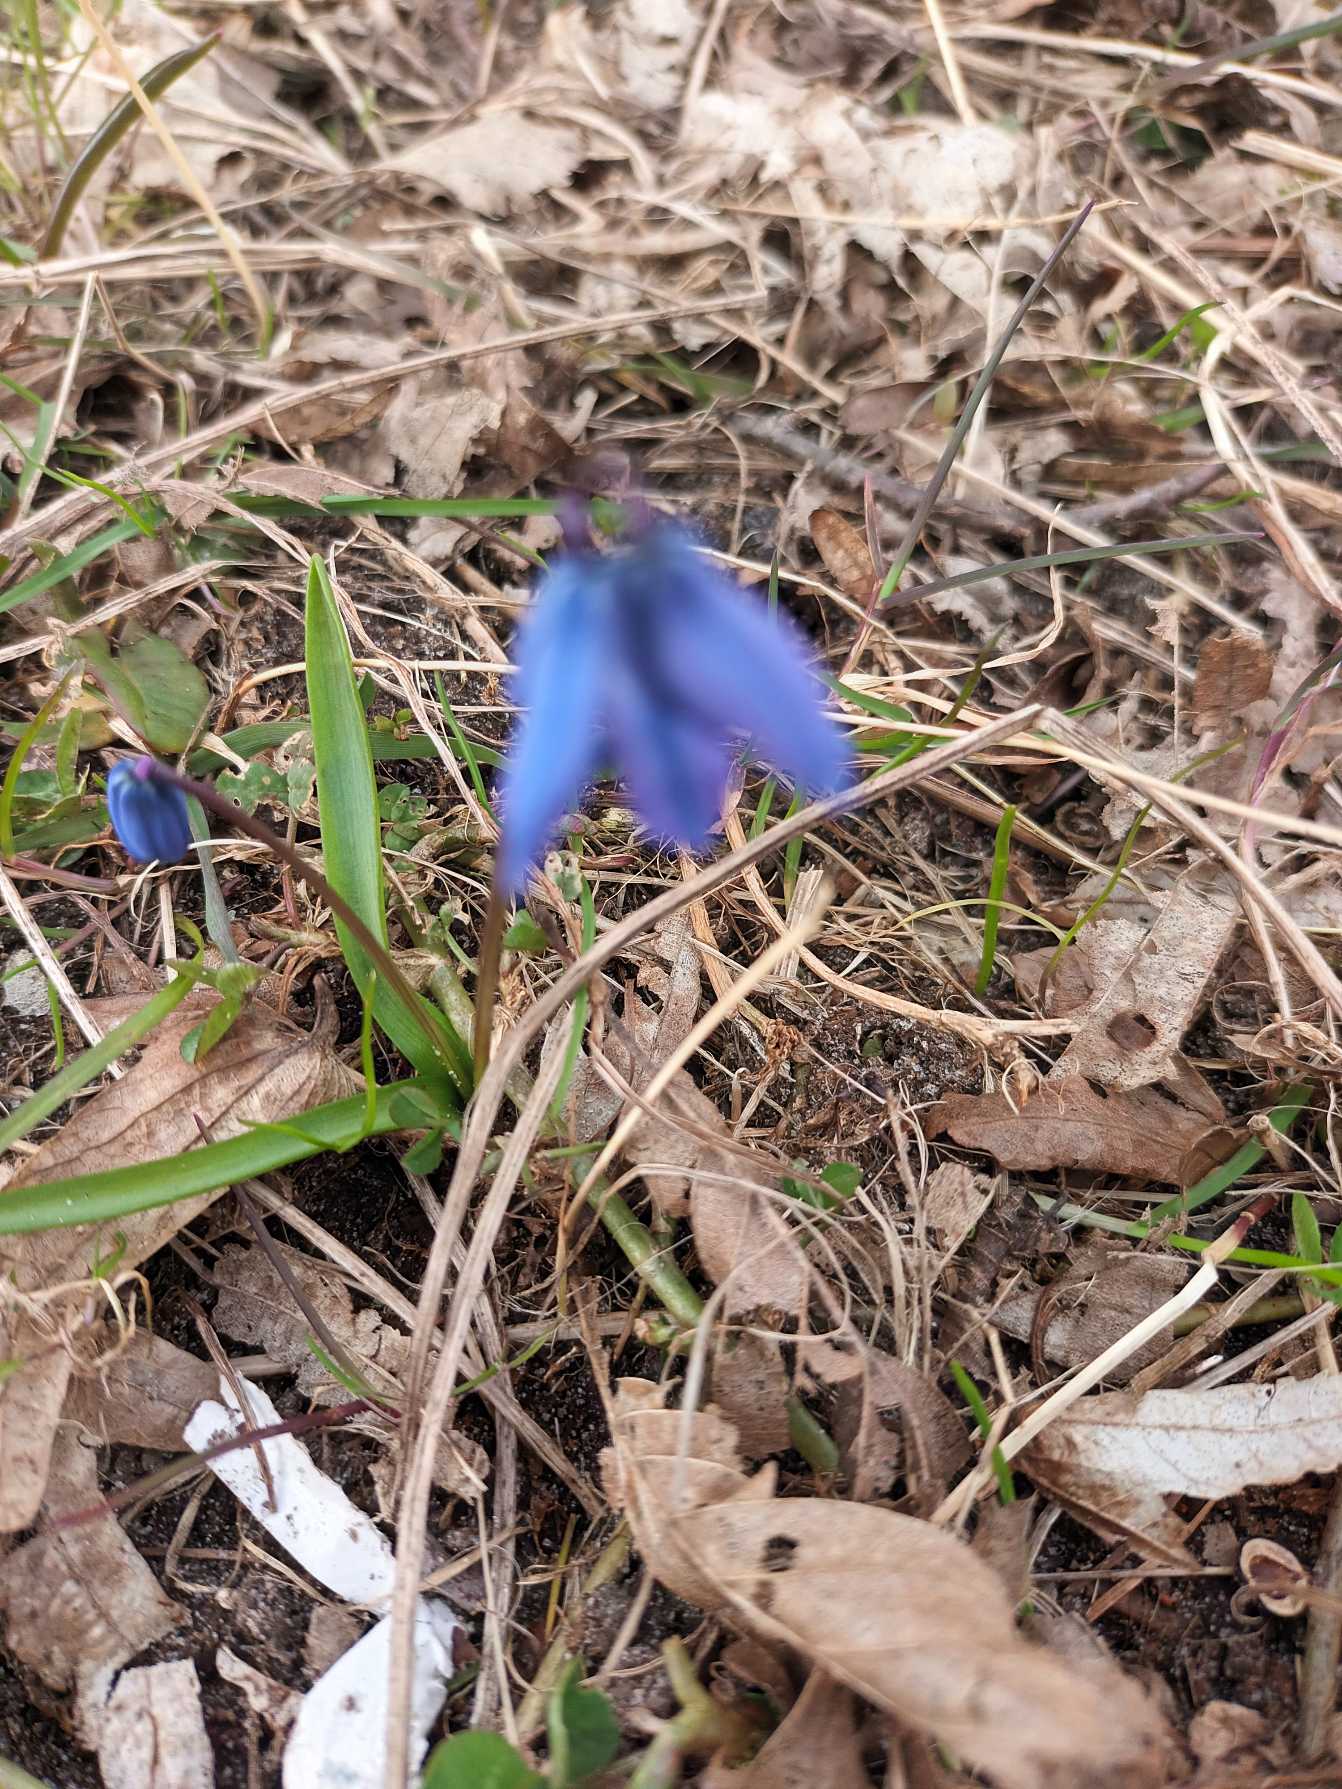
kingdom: Plantae
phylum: Tracheophyta
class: Liliopsida
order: Asparagales
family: Asparagaceae
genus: Scilla
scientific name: Scilla siberica
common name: Russisk skilla
